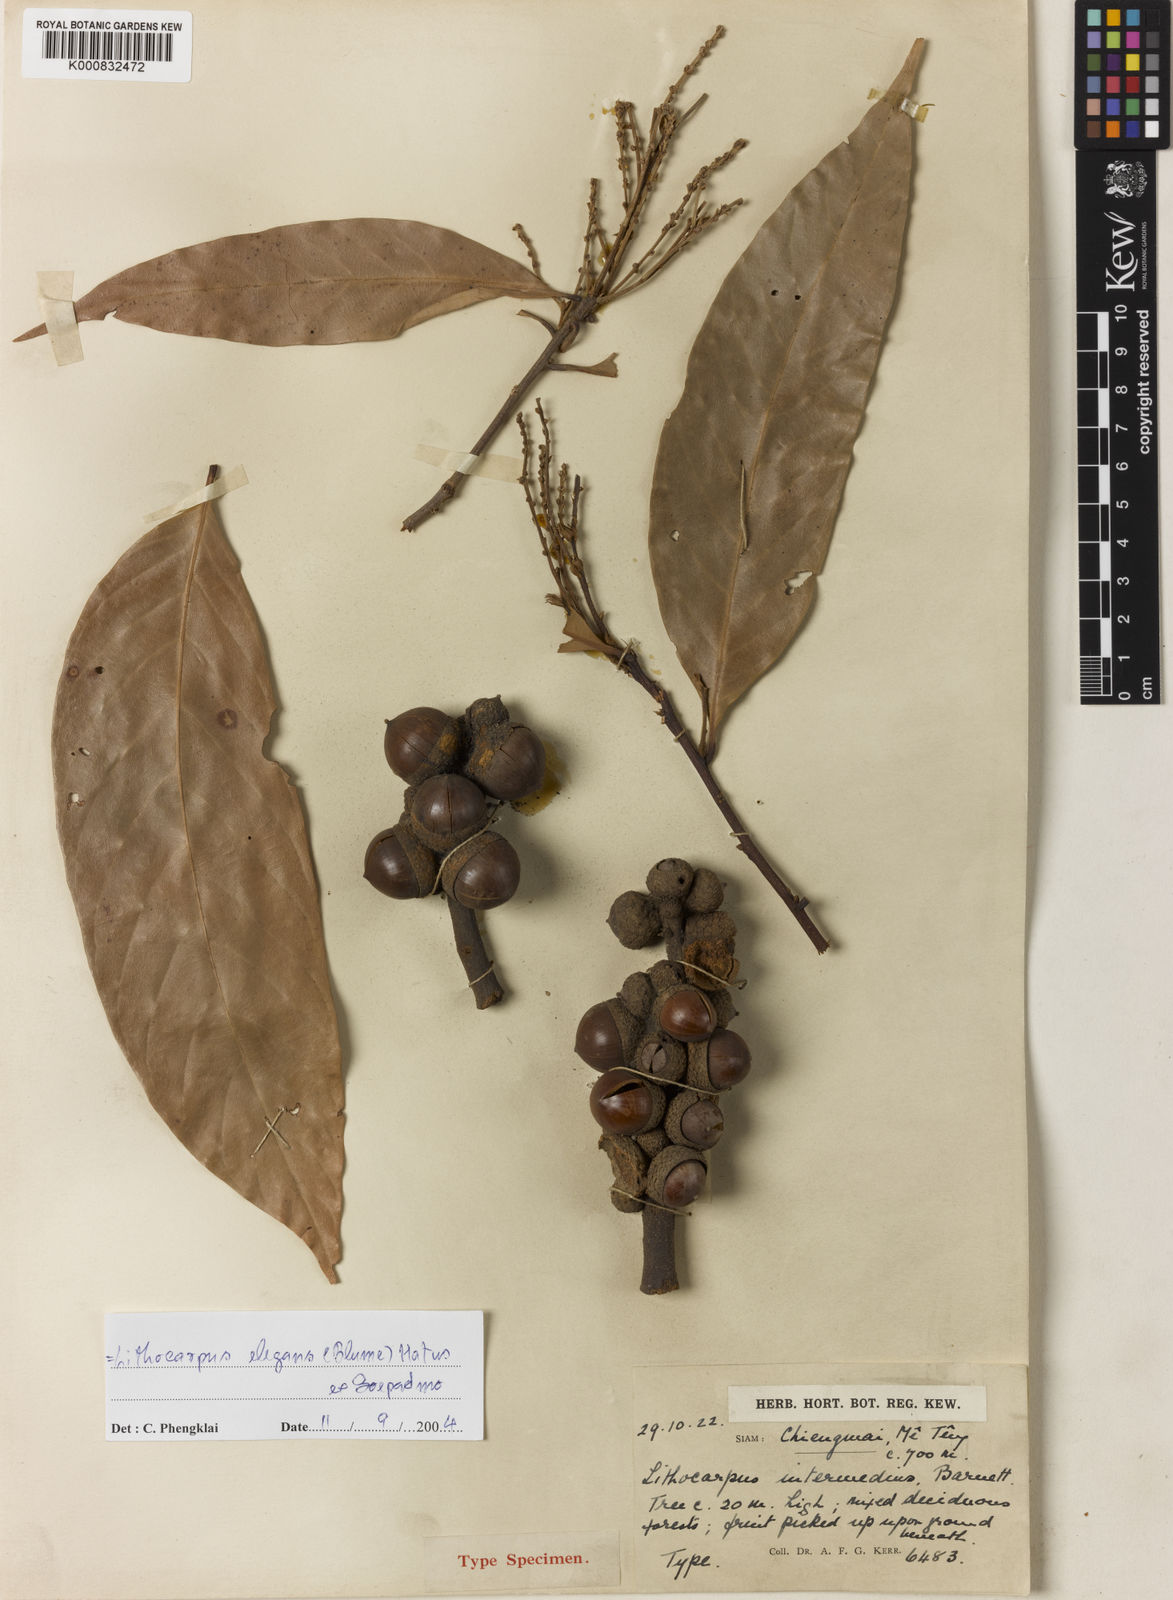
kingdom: Plantae
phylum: Tracheophyta
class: Magnoliopsida
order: Fagales
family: Fagaceae
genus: Lithocarpus
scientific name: Lithocarpus elegans
